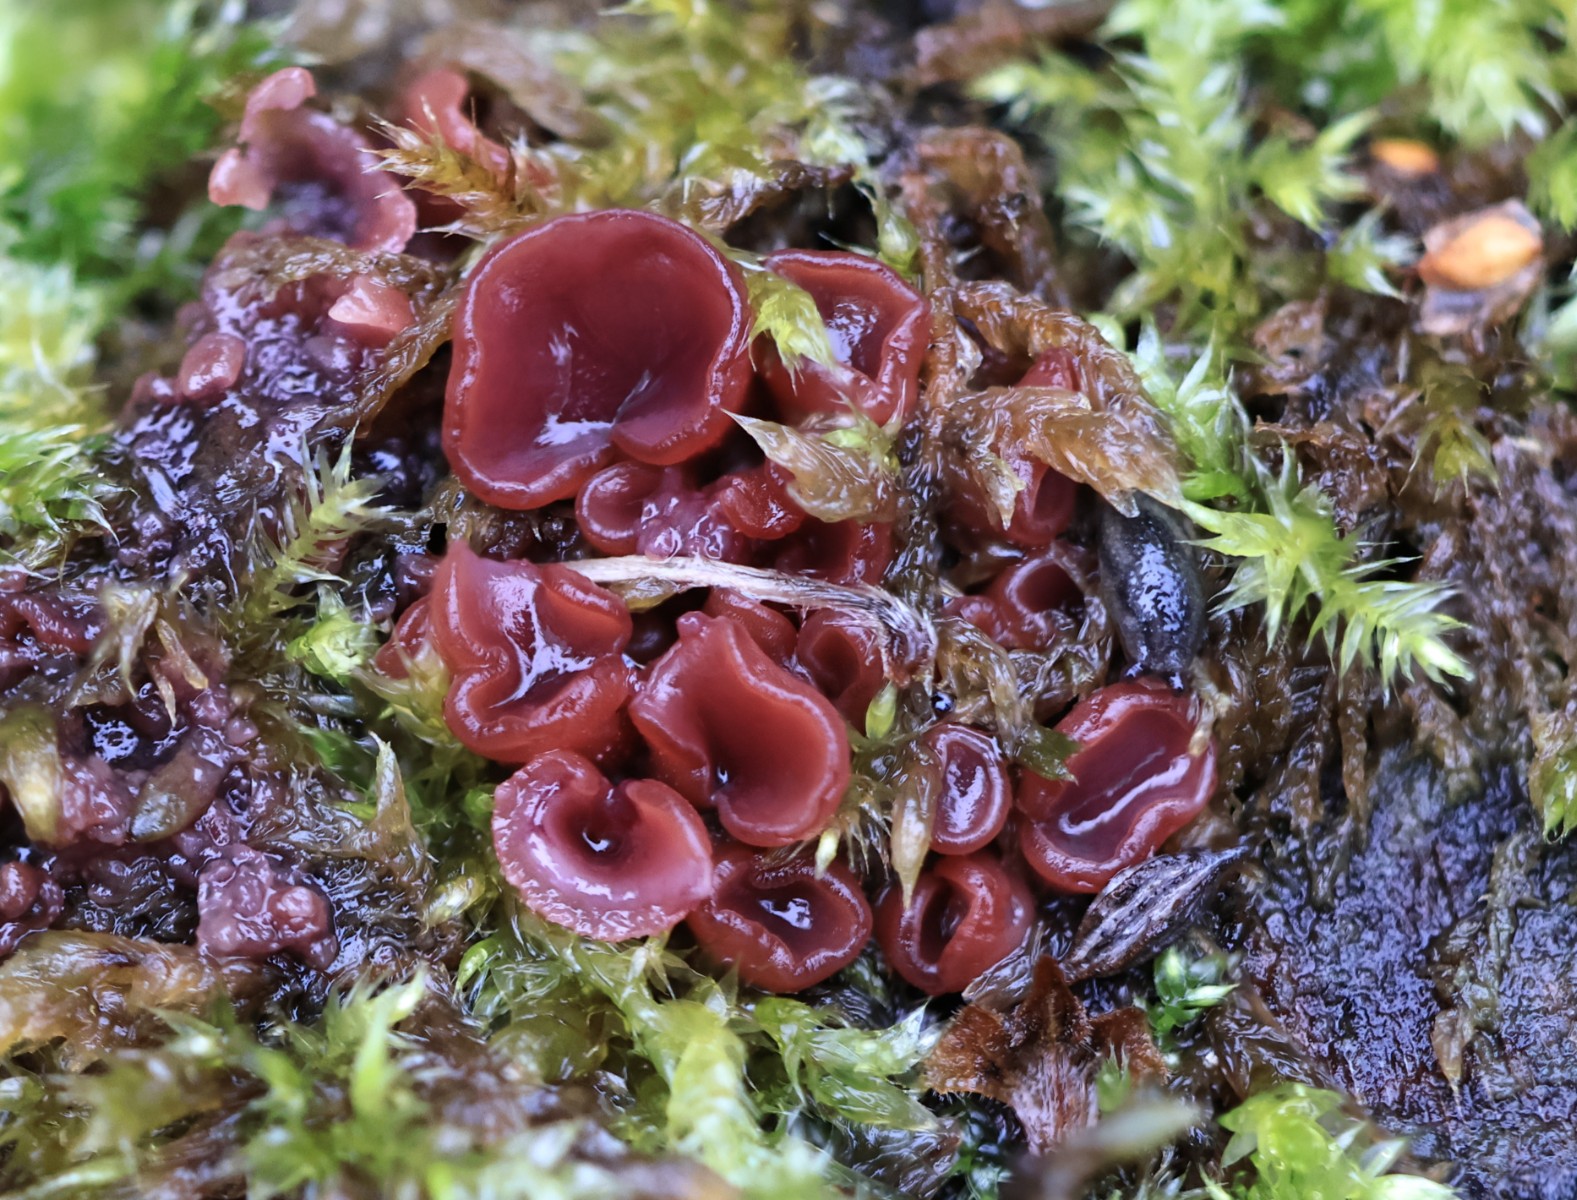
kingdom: Fungi
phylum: Ascomycota
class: Leotiomycetes
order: Helotiales
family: Gelatinodiscaceae
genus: Ascocoryne
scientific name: Ascocoryne
